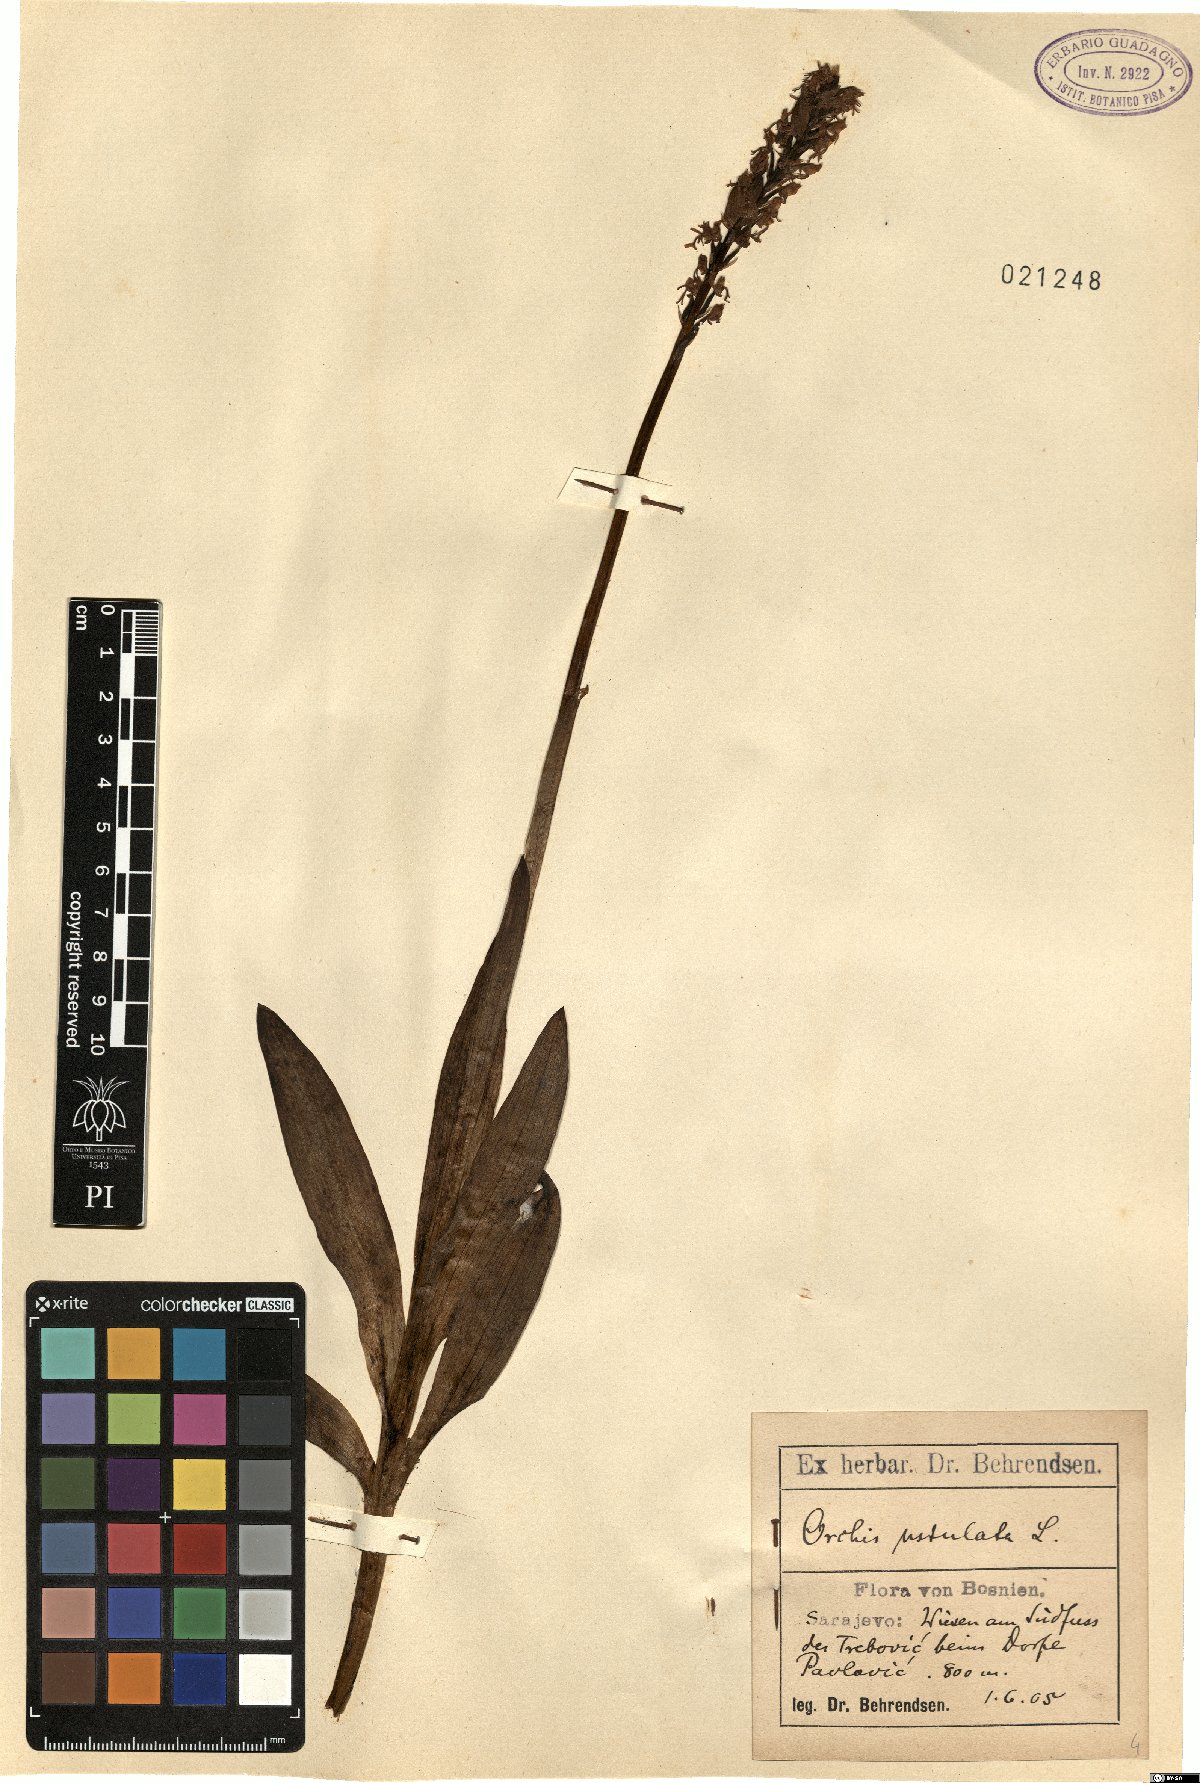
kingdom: Plantae
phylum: Tracheophyta
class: Liliopsida
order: Asparagales
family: Orchidaceae
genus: Neotinea
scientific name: Neotinea ustulata
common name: Burnt orchid
